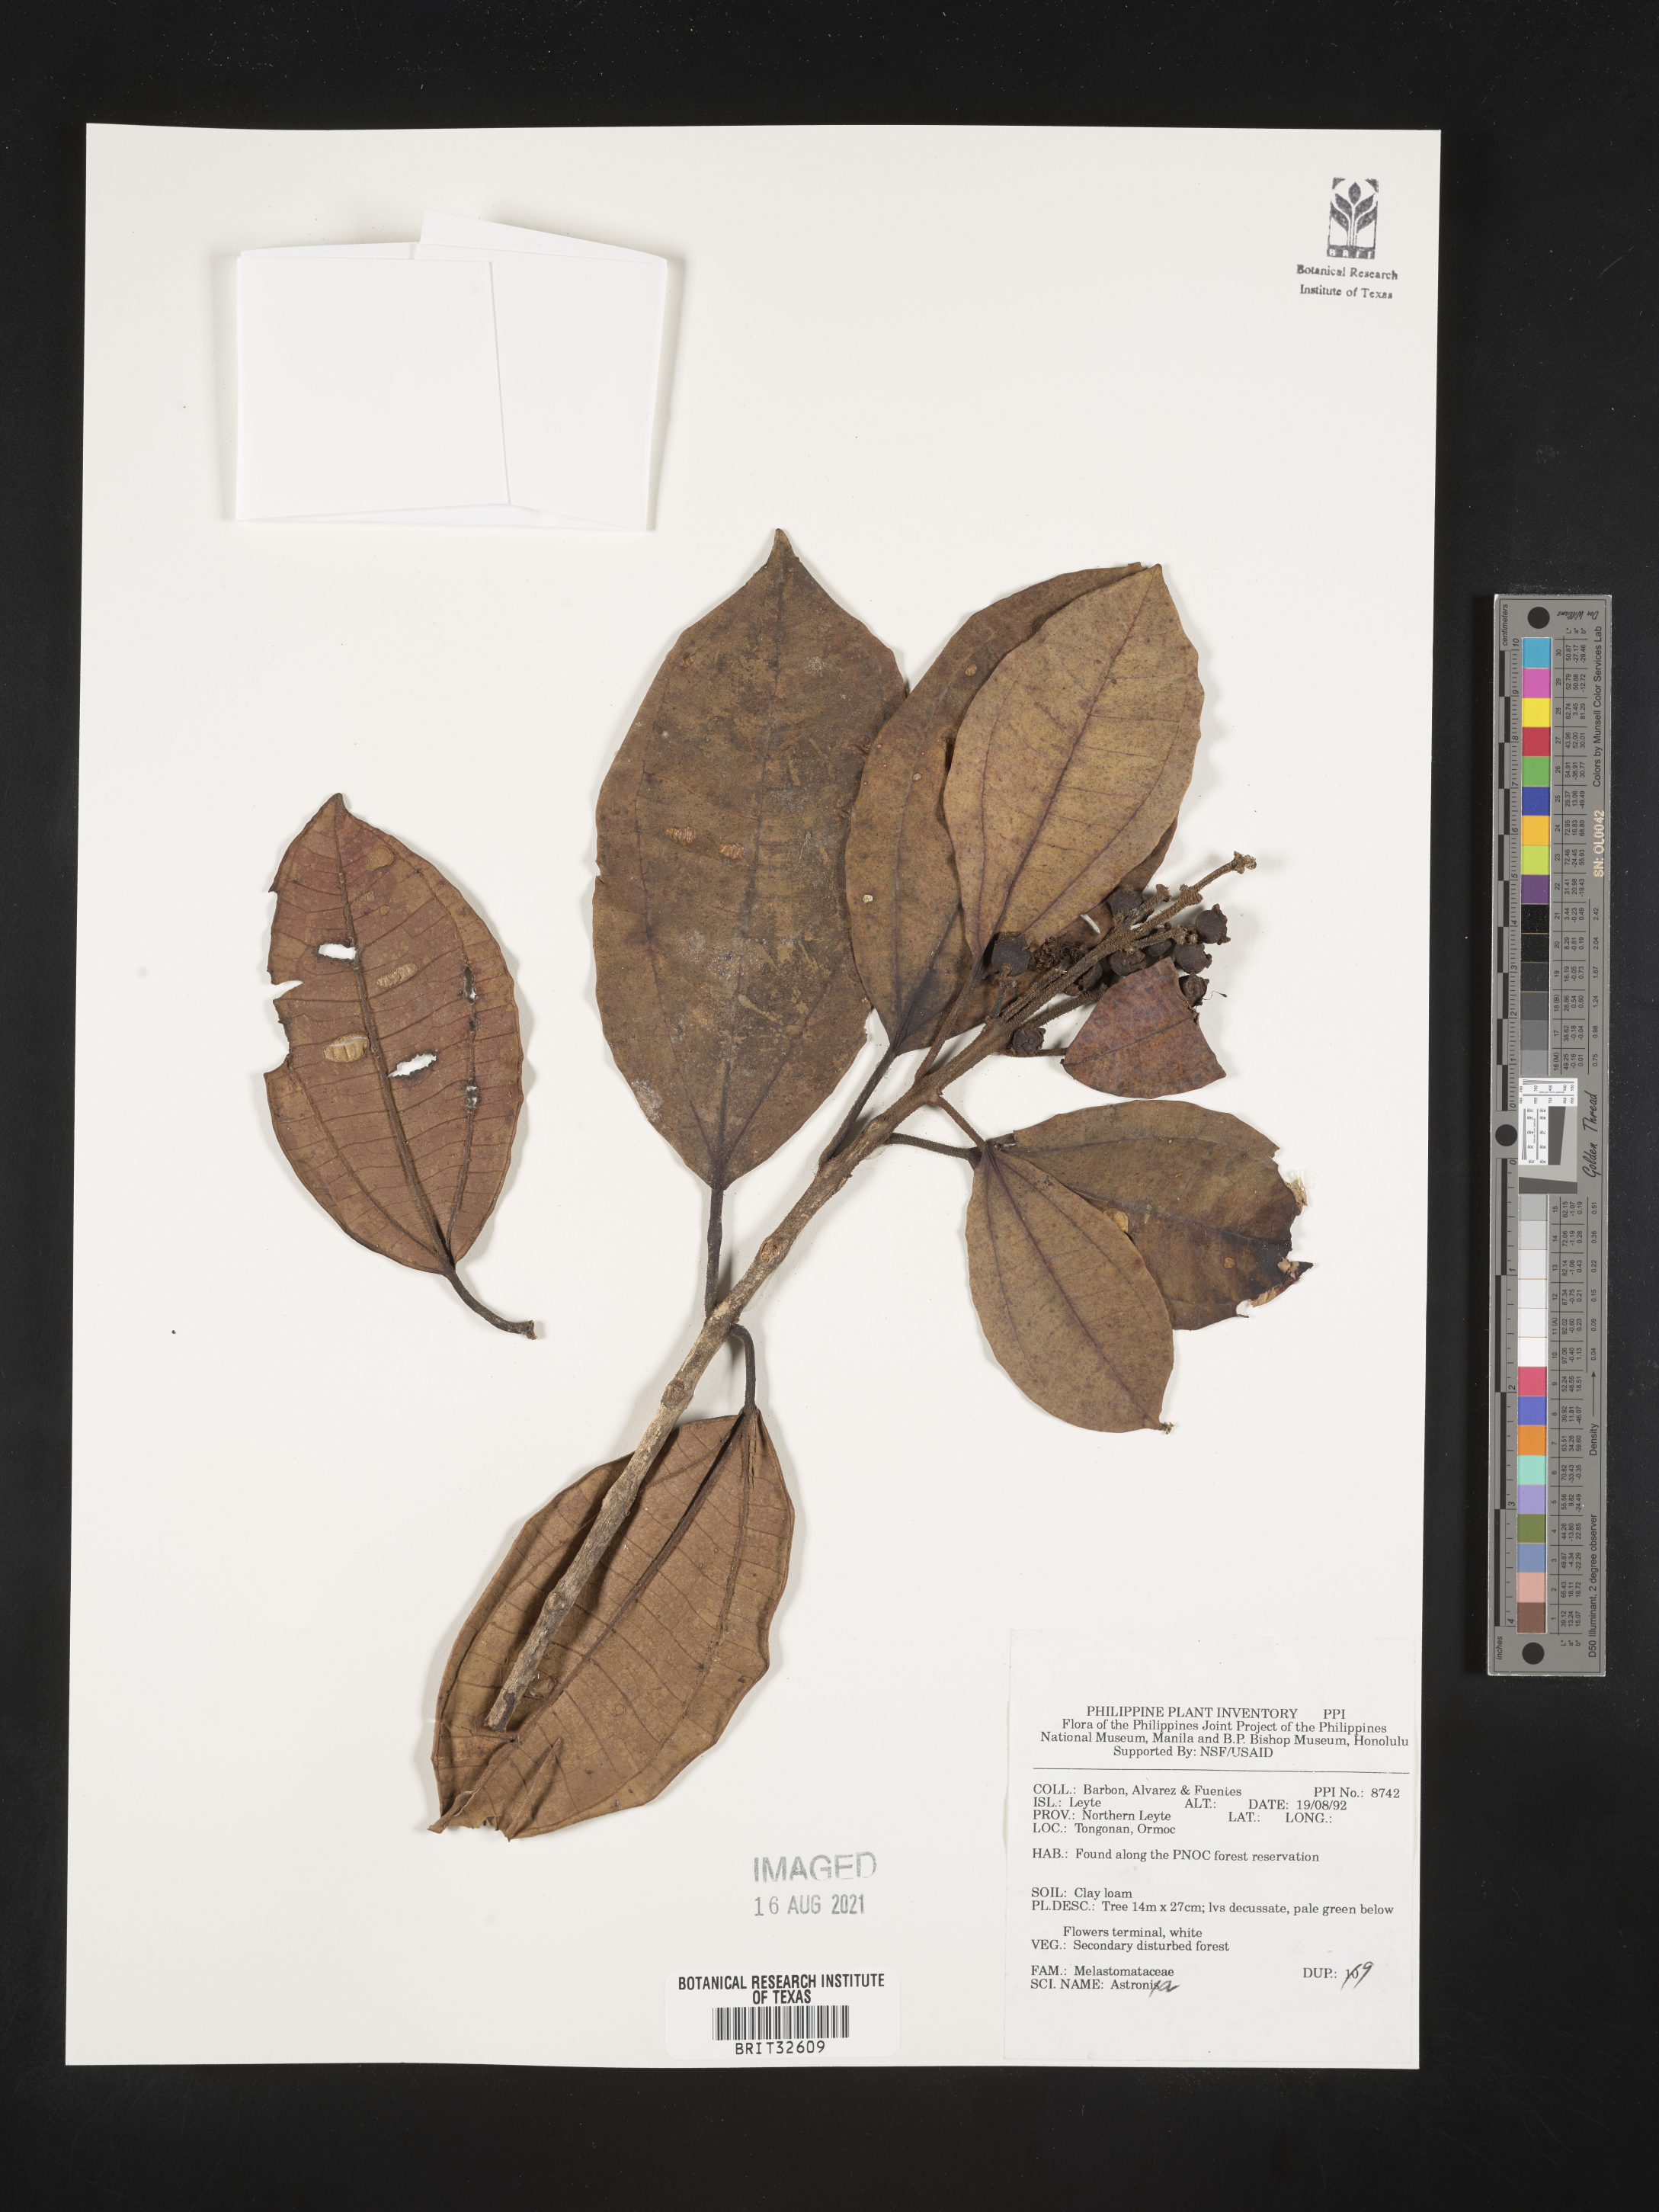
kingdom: Plantae
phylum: Tracheophyta
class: Magnoliopsida
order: Myrtales
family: Melastomataceae
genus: Astronia
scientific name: Astronia
